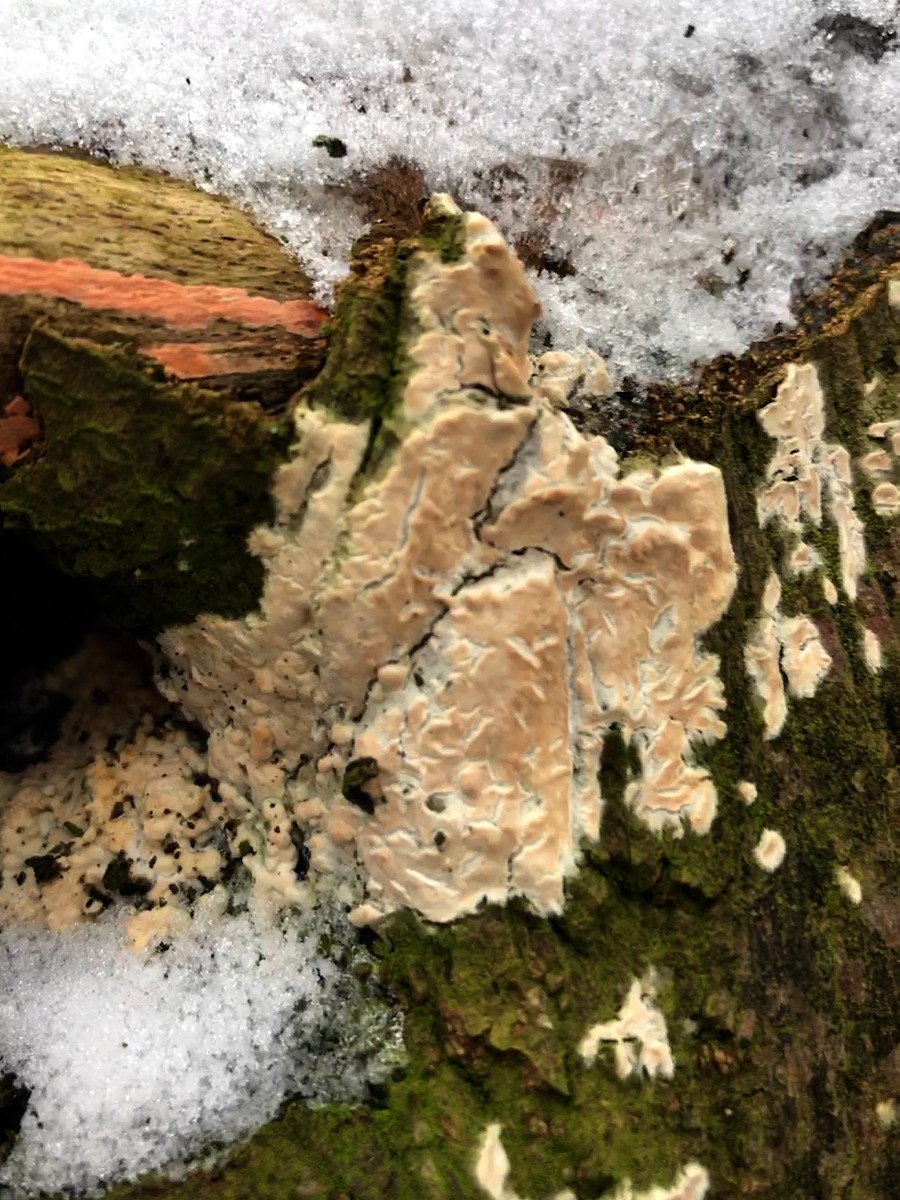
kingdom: Fungi
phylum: Basidiomycota
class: Agaricomycetes
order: Agaricales
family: Physalacriaceae
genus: Cylindrobasidium
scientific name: Cylindrobasidium evolvens
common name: sprækkehinde
